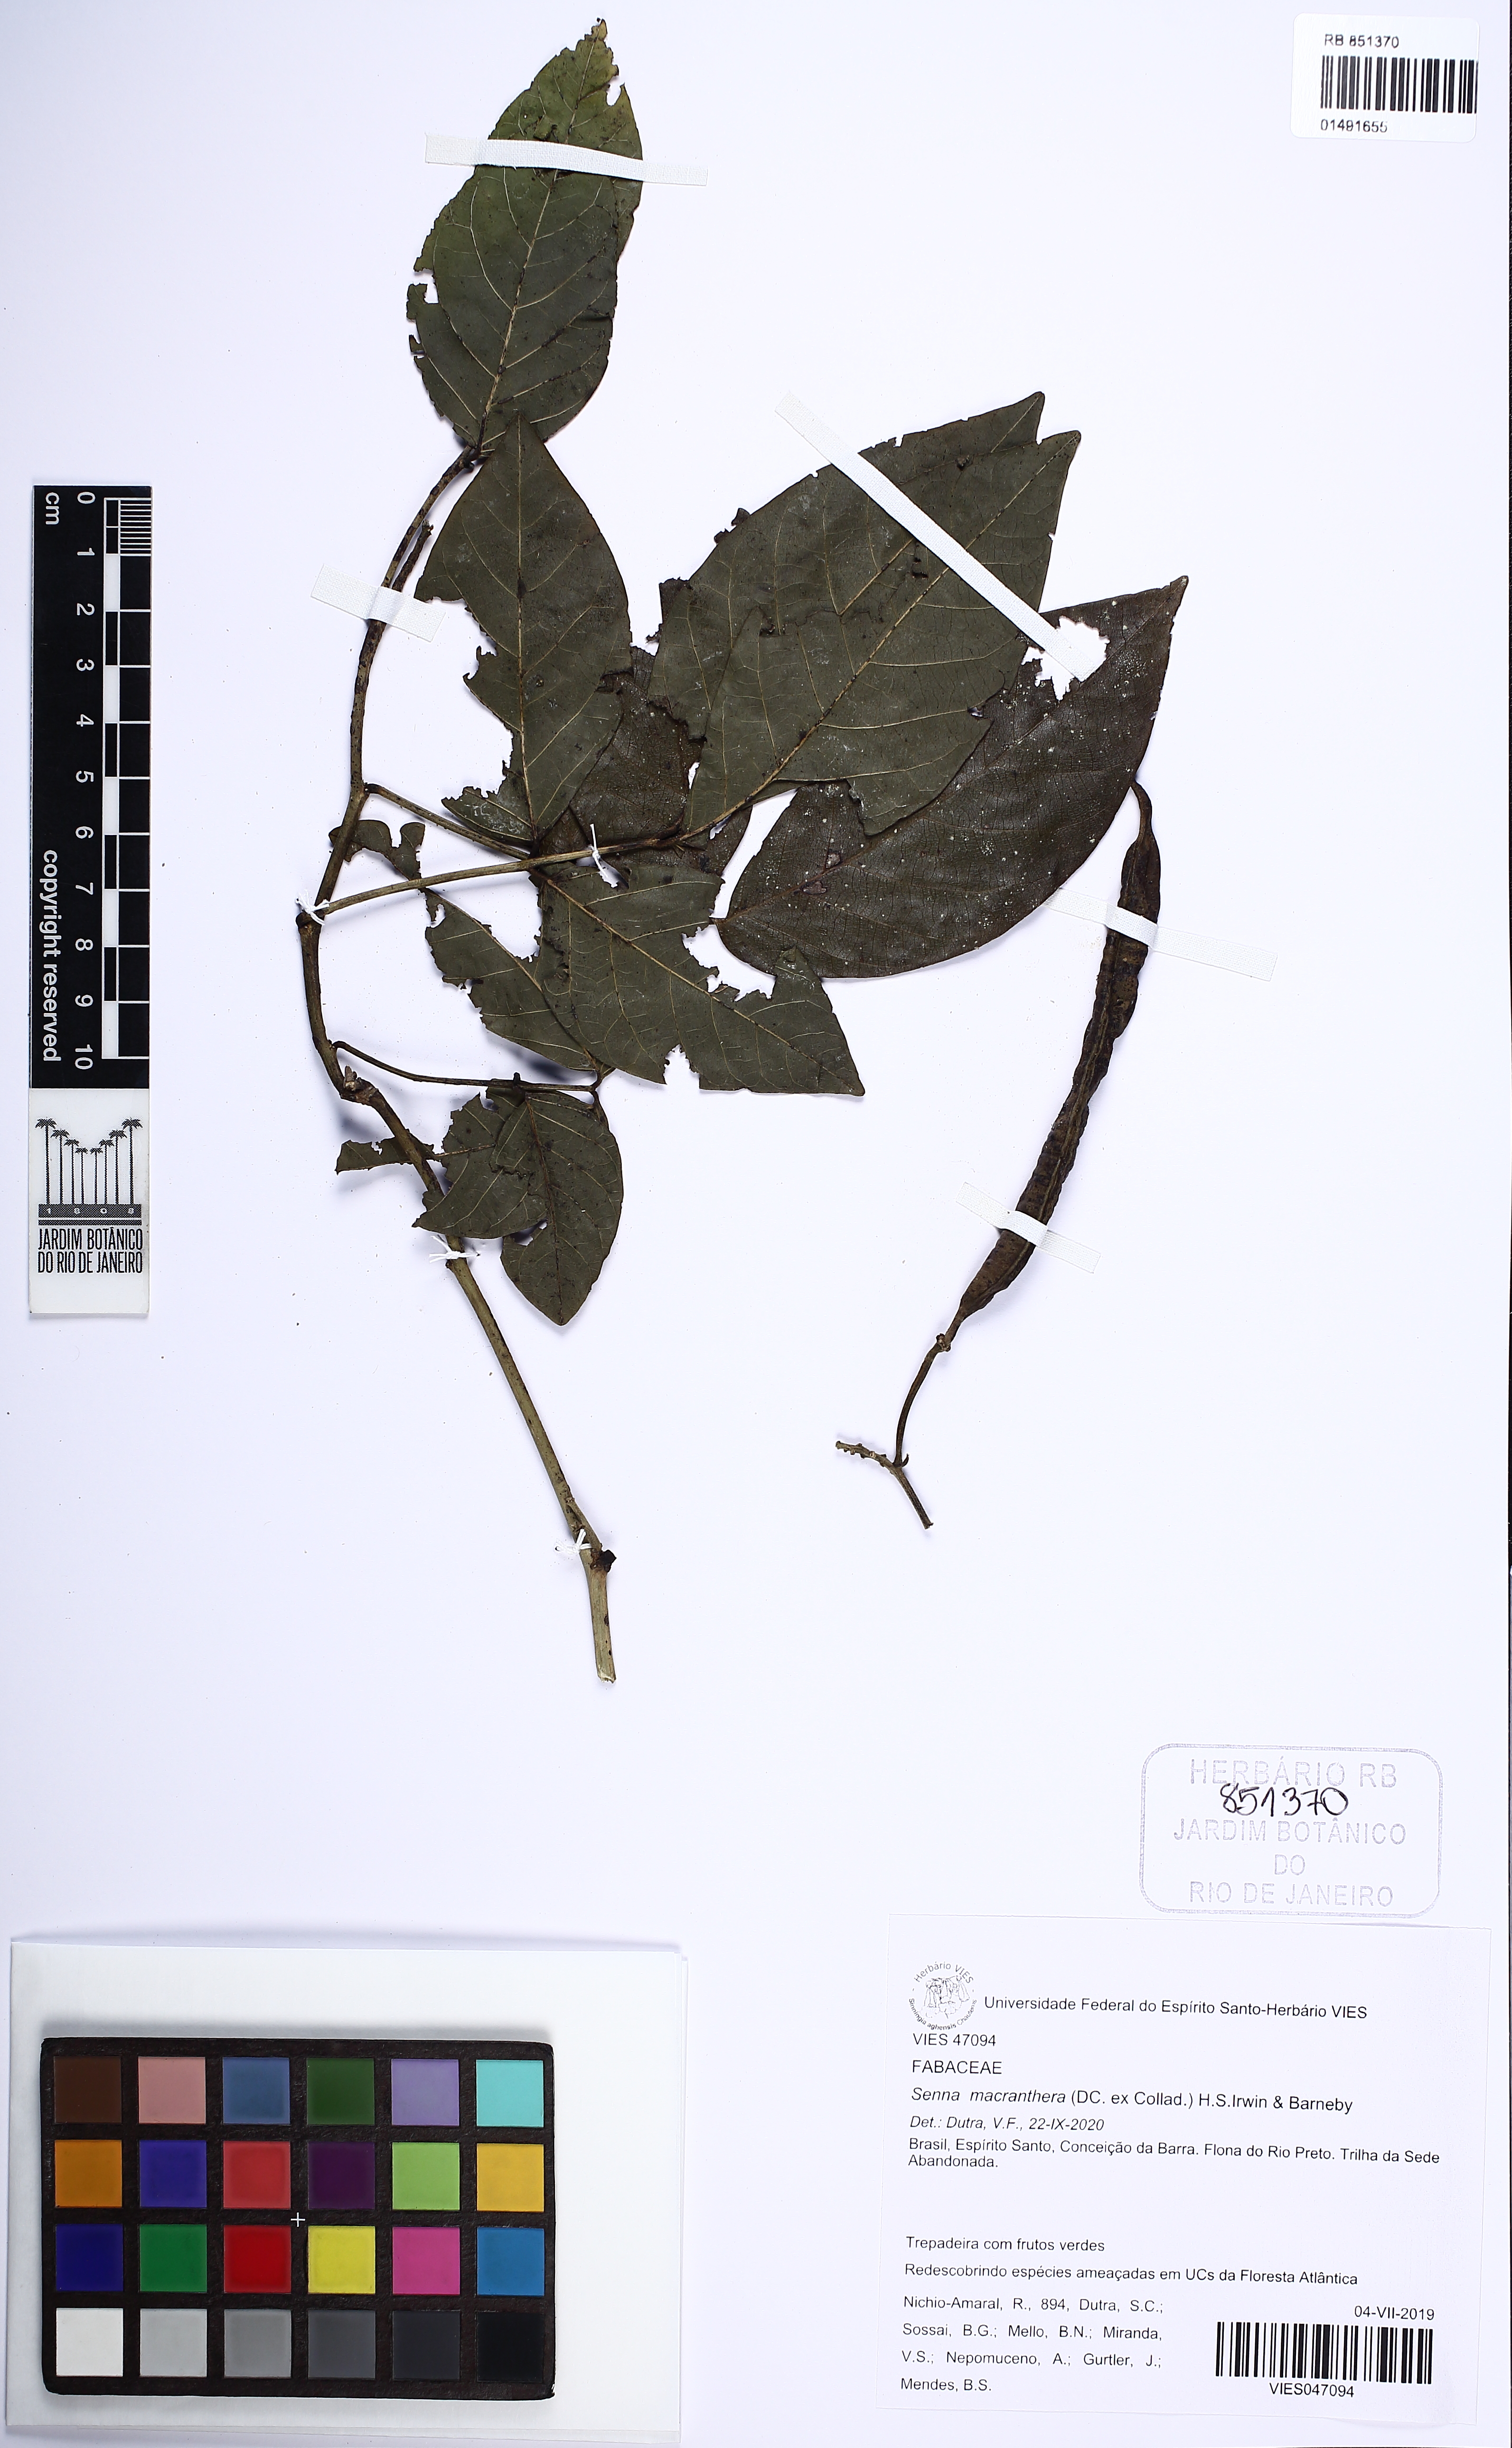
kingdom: Plantae
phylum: Tracheophyta
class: Magnoliopsida
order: Fabales
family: Fabaceae
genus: Senna
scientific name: Senna macranthera
